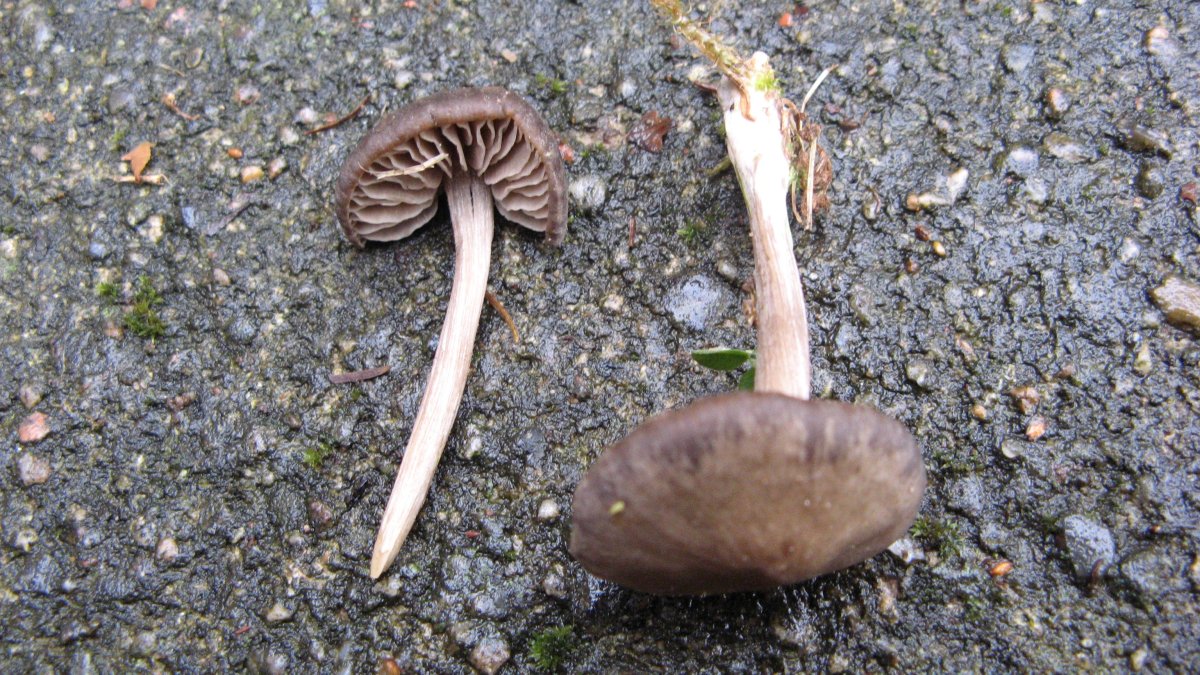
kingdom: Fungi
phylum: Basidiomycota
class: Agaricomycetes
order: Agaricales
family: Entolomataceae
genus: Entoloma
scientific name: Entoloma sericeum
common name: silkeglinsende rødblad
